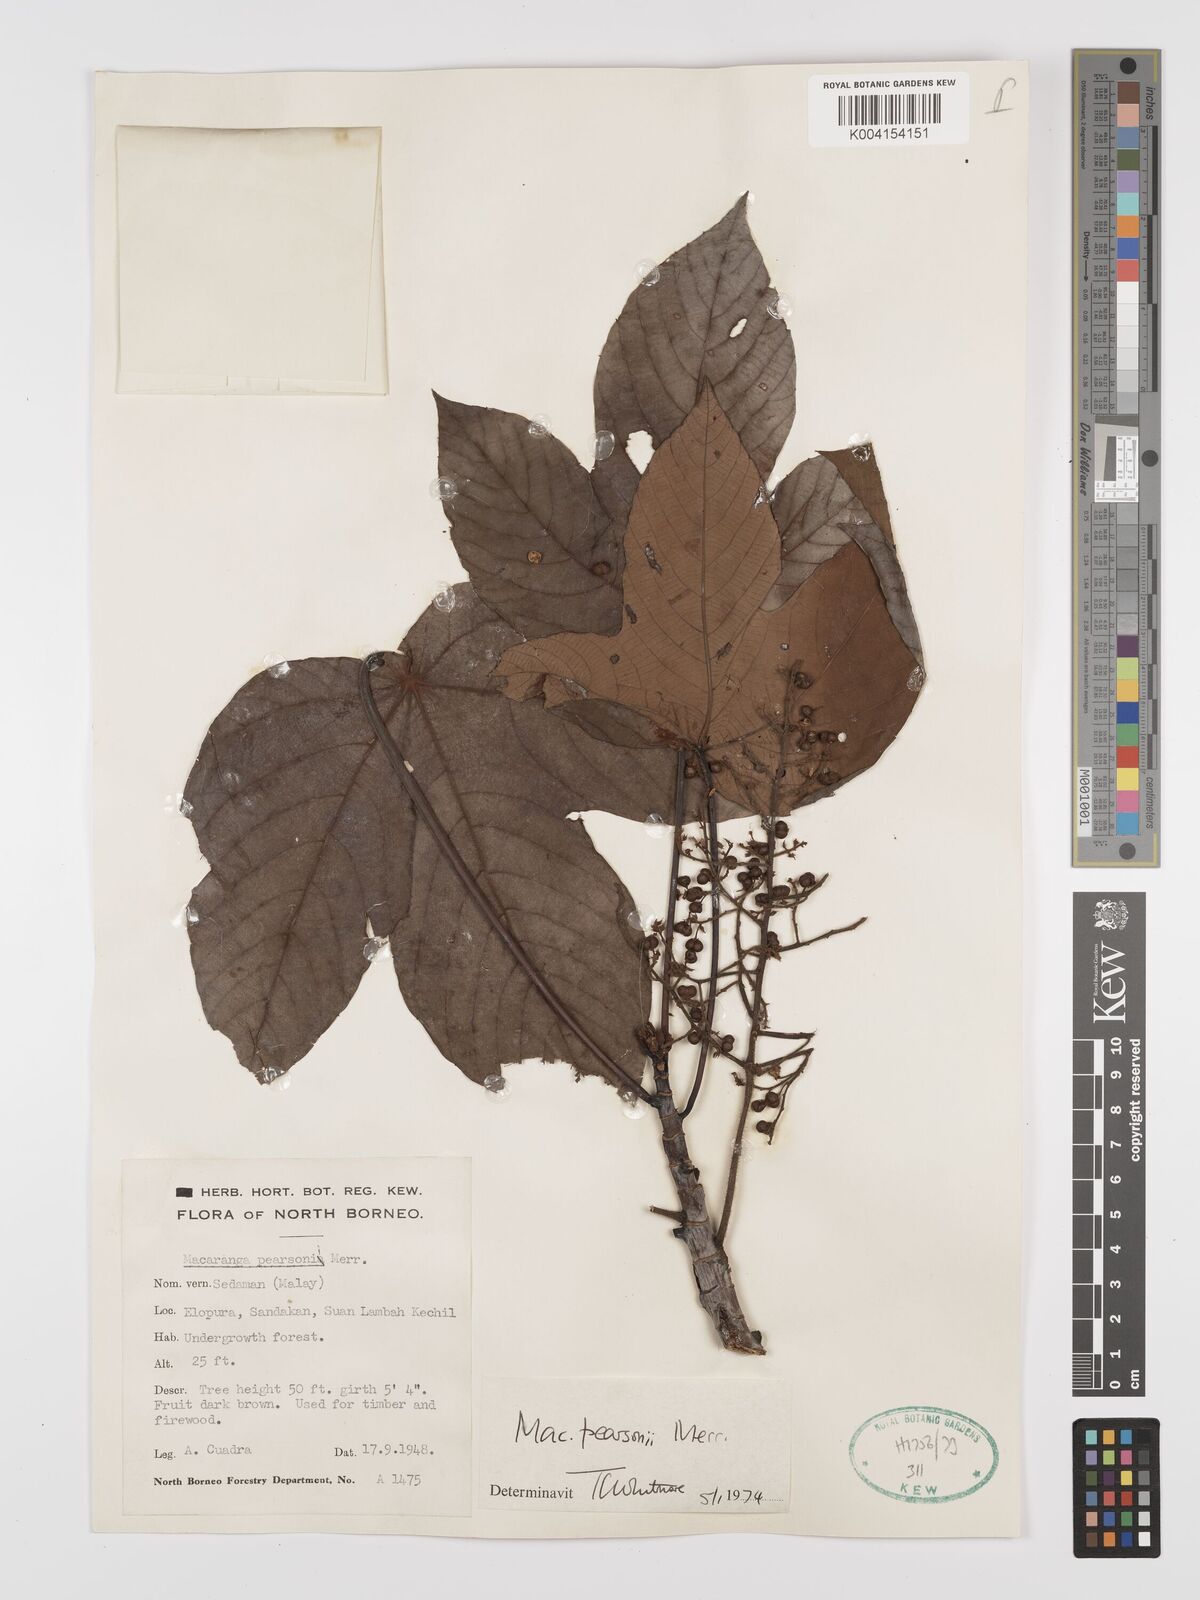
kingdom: Plantae
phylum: Tracheophyta
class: Magnoliopsida
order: Malpighiales
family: Euphorbiaceae
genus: Macaranga
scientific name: Macaranga pearsonii
